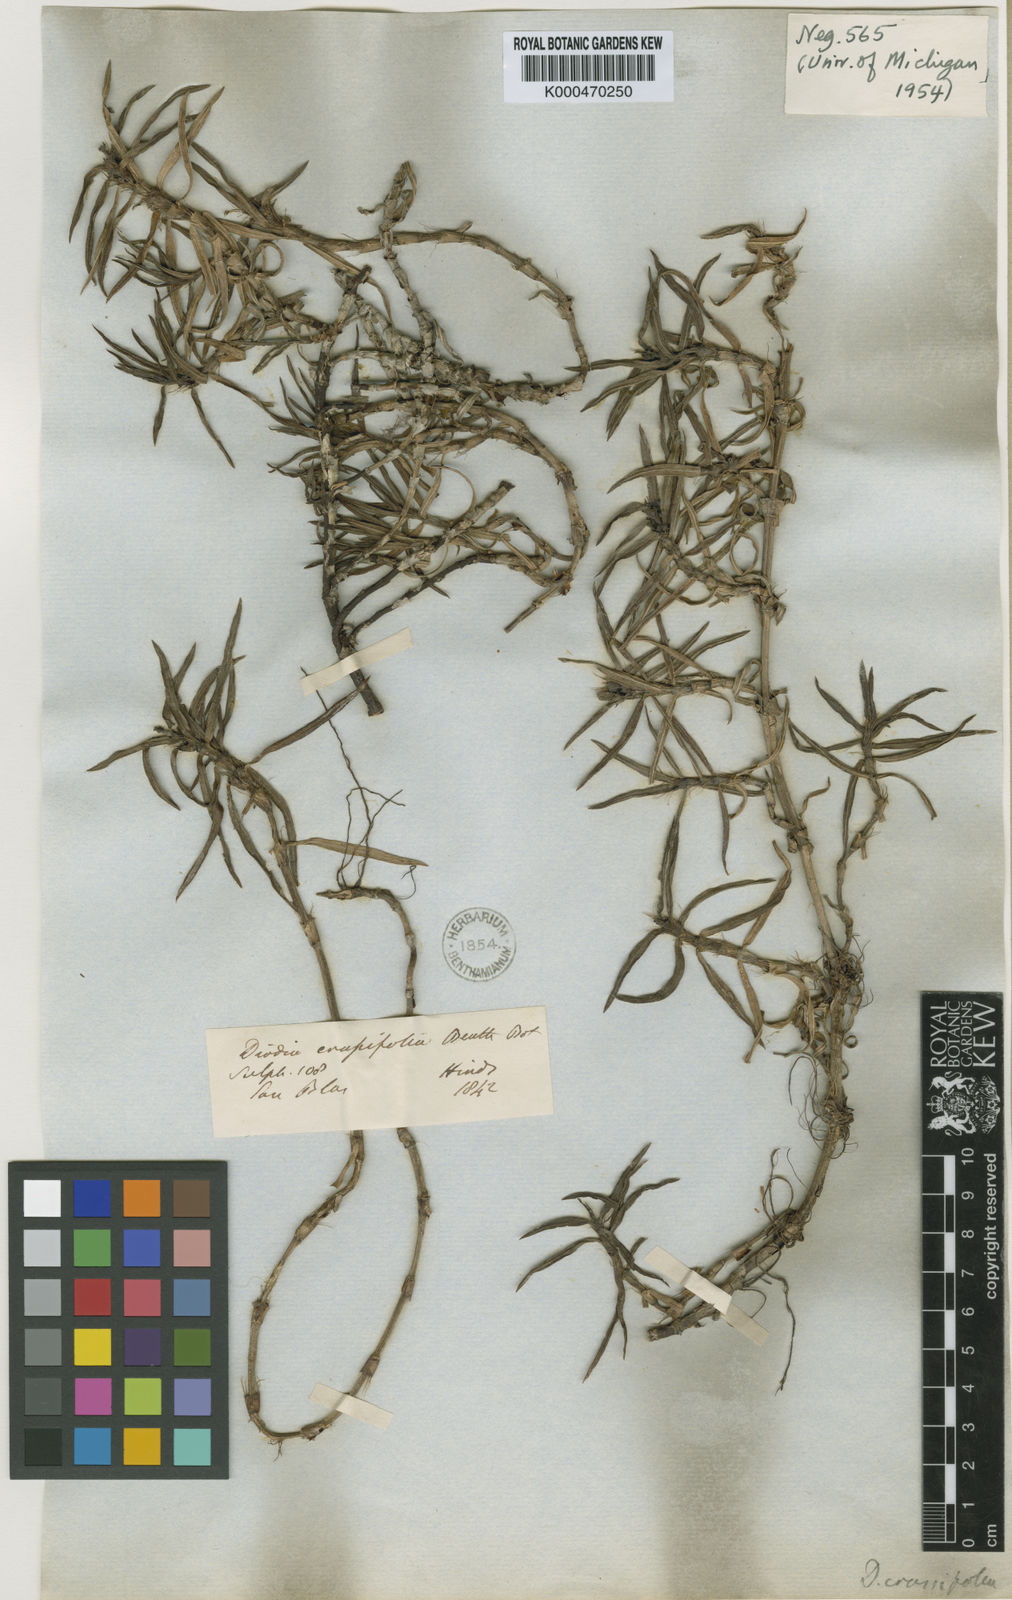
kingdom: Plantae
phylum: Tracheophyta
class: Magnoliopsida
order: Gentianales
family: Rubiaceae
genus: Hexasepalum
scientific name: Hexasepalum angustifolium
